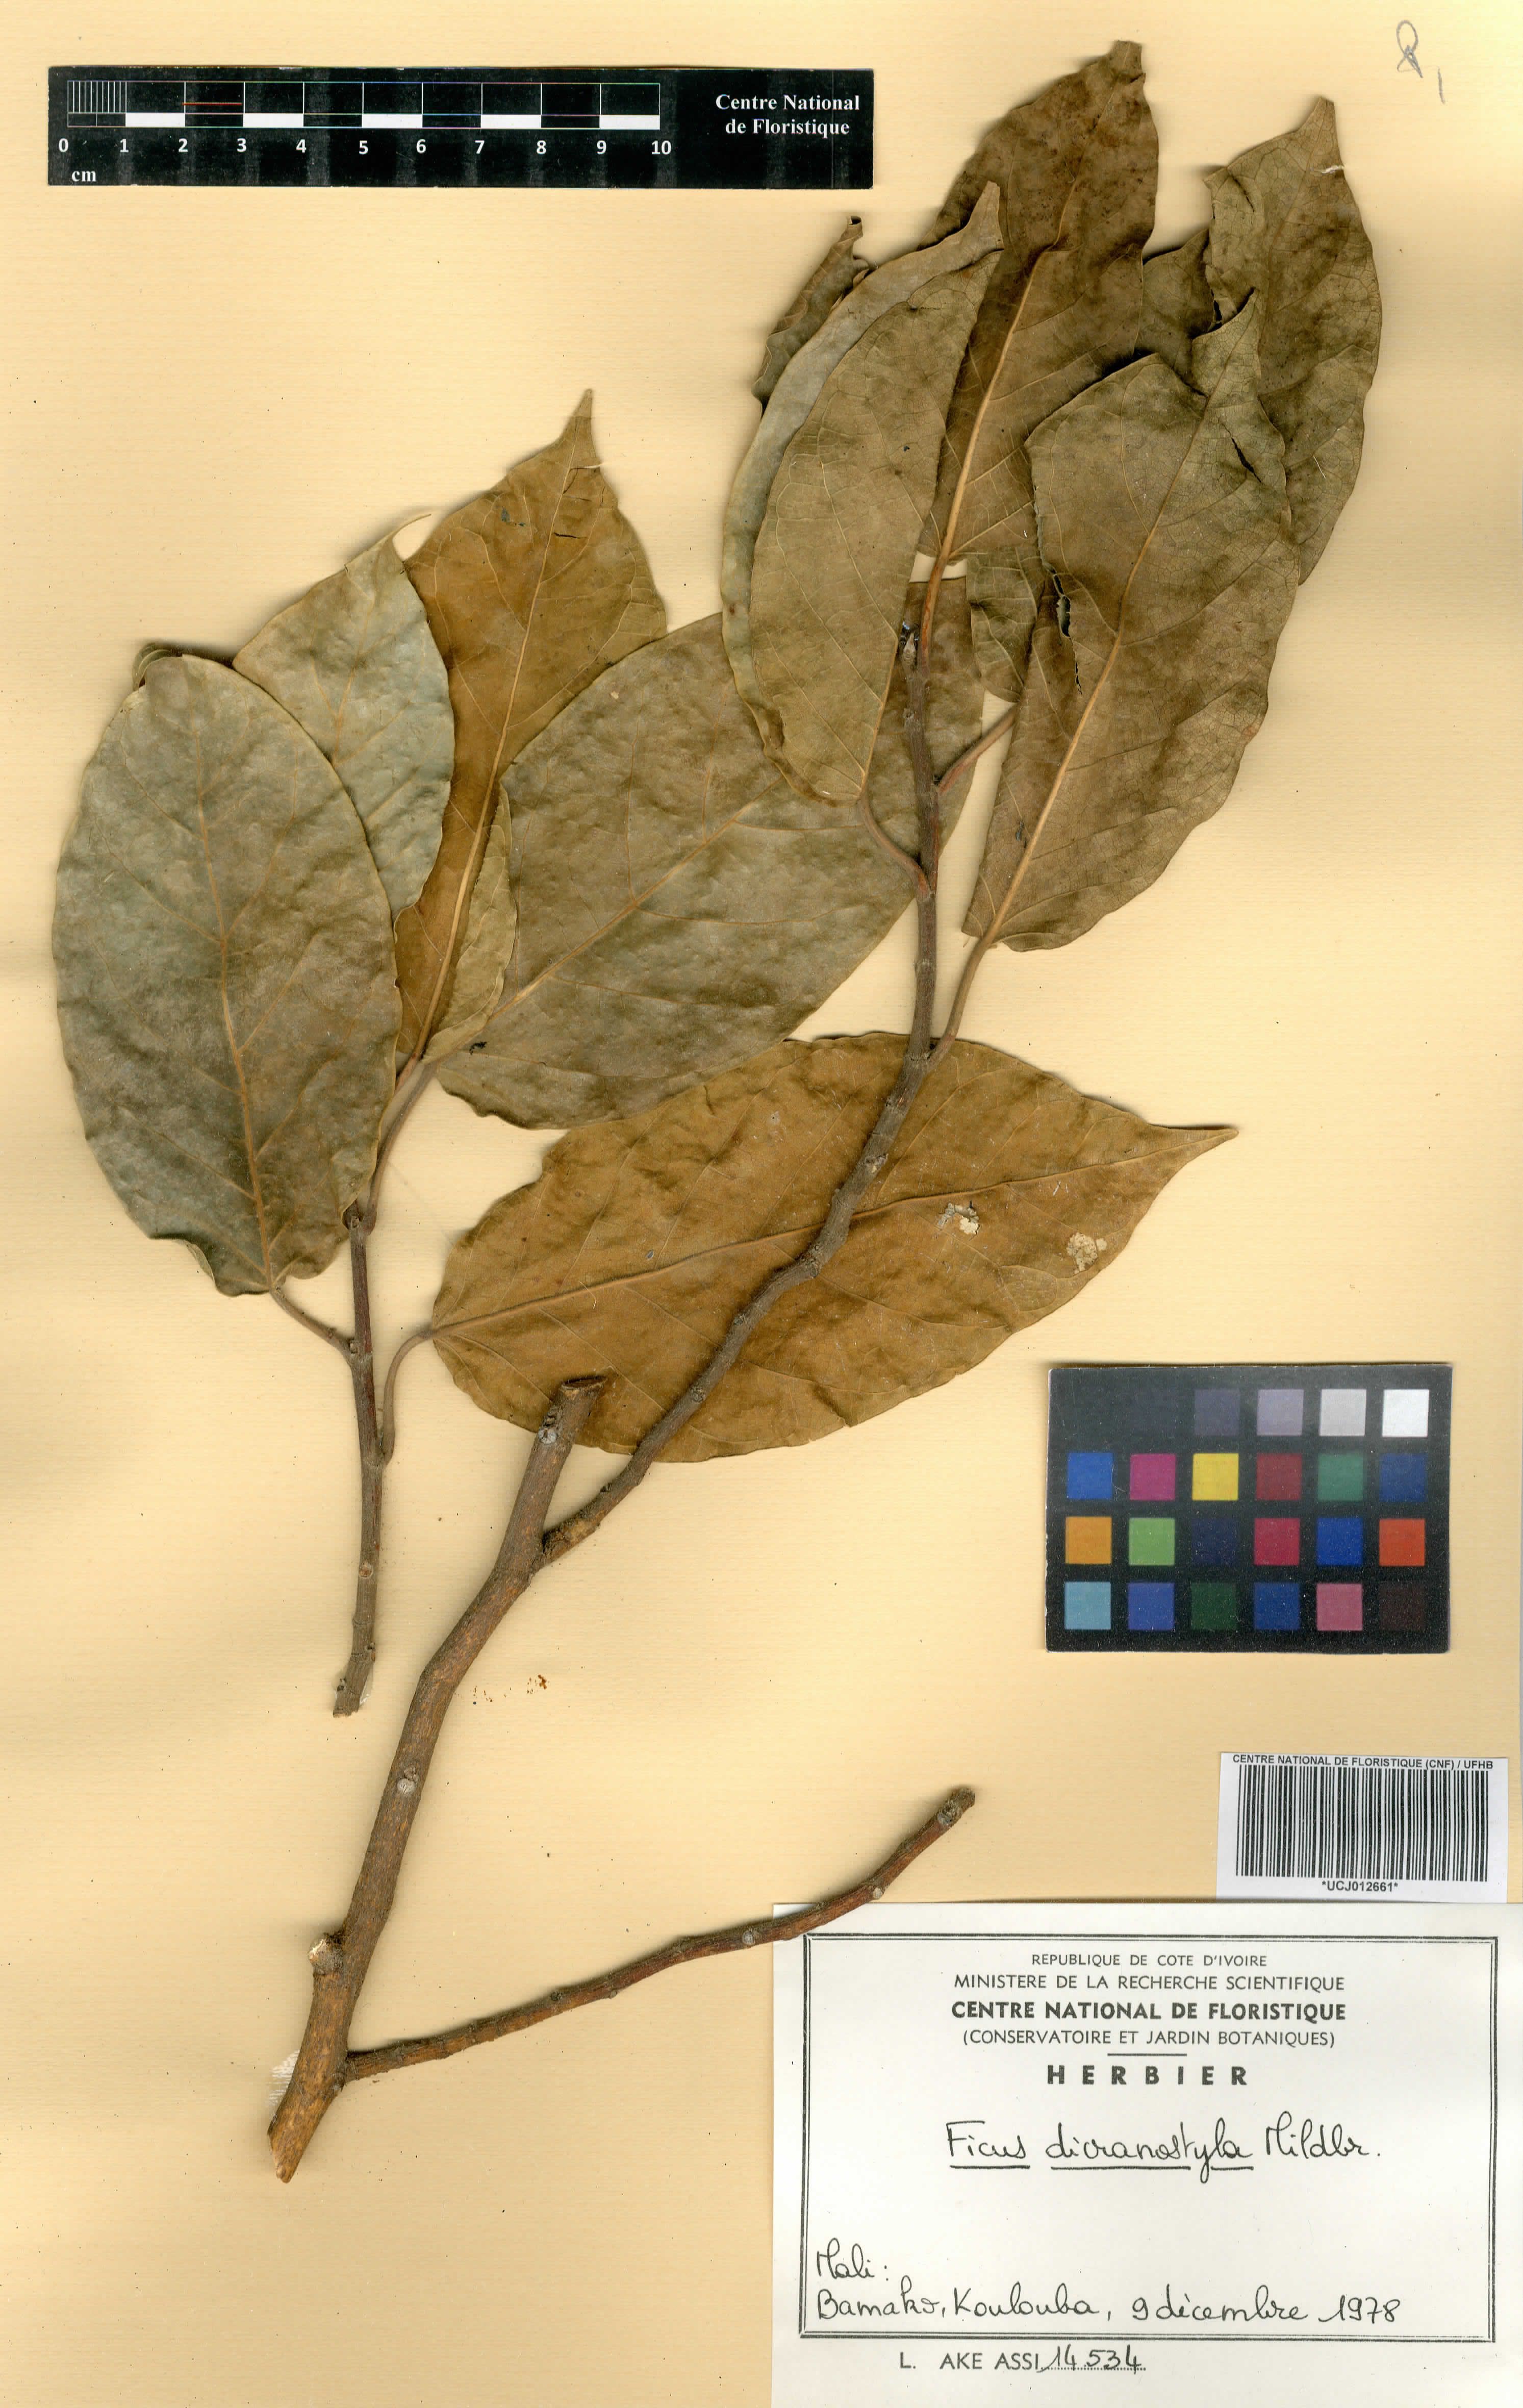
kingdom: Plantae
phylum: Tracheophyta
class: Magnoliopsida
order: Rosales
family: Moraceae
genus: Ficus
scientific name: Ficus dicranostyla
